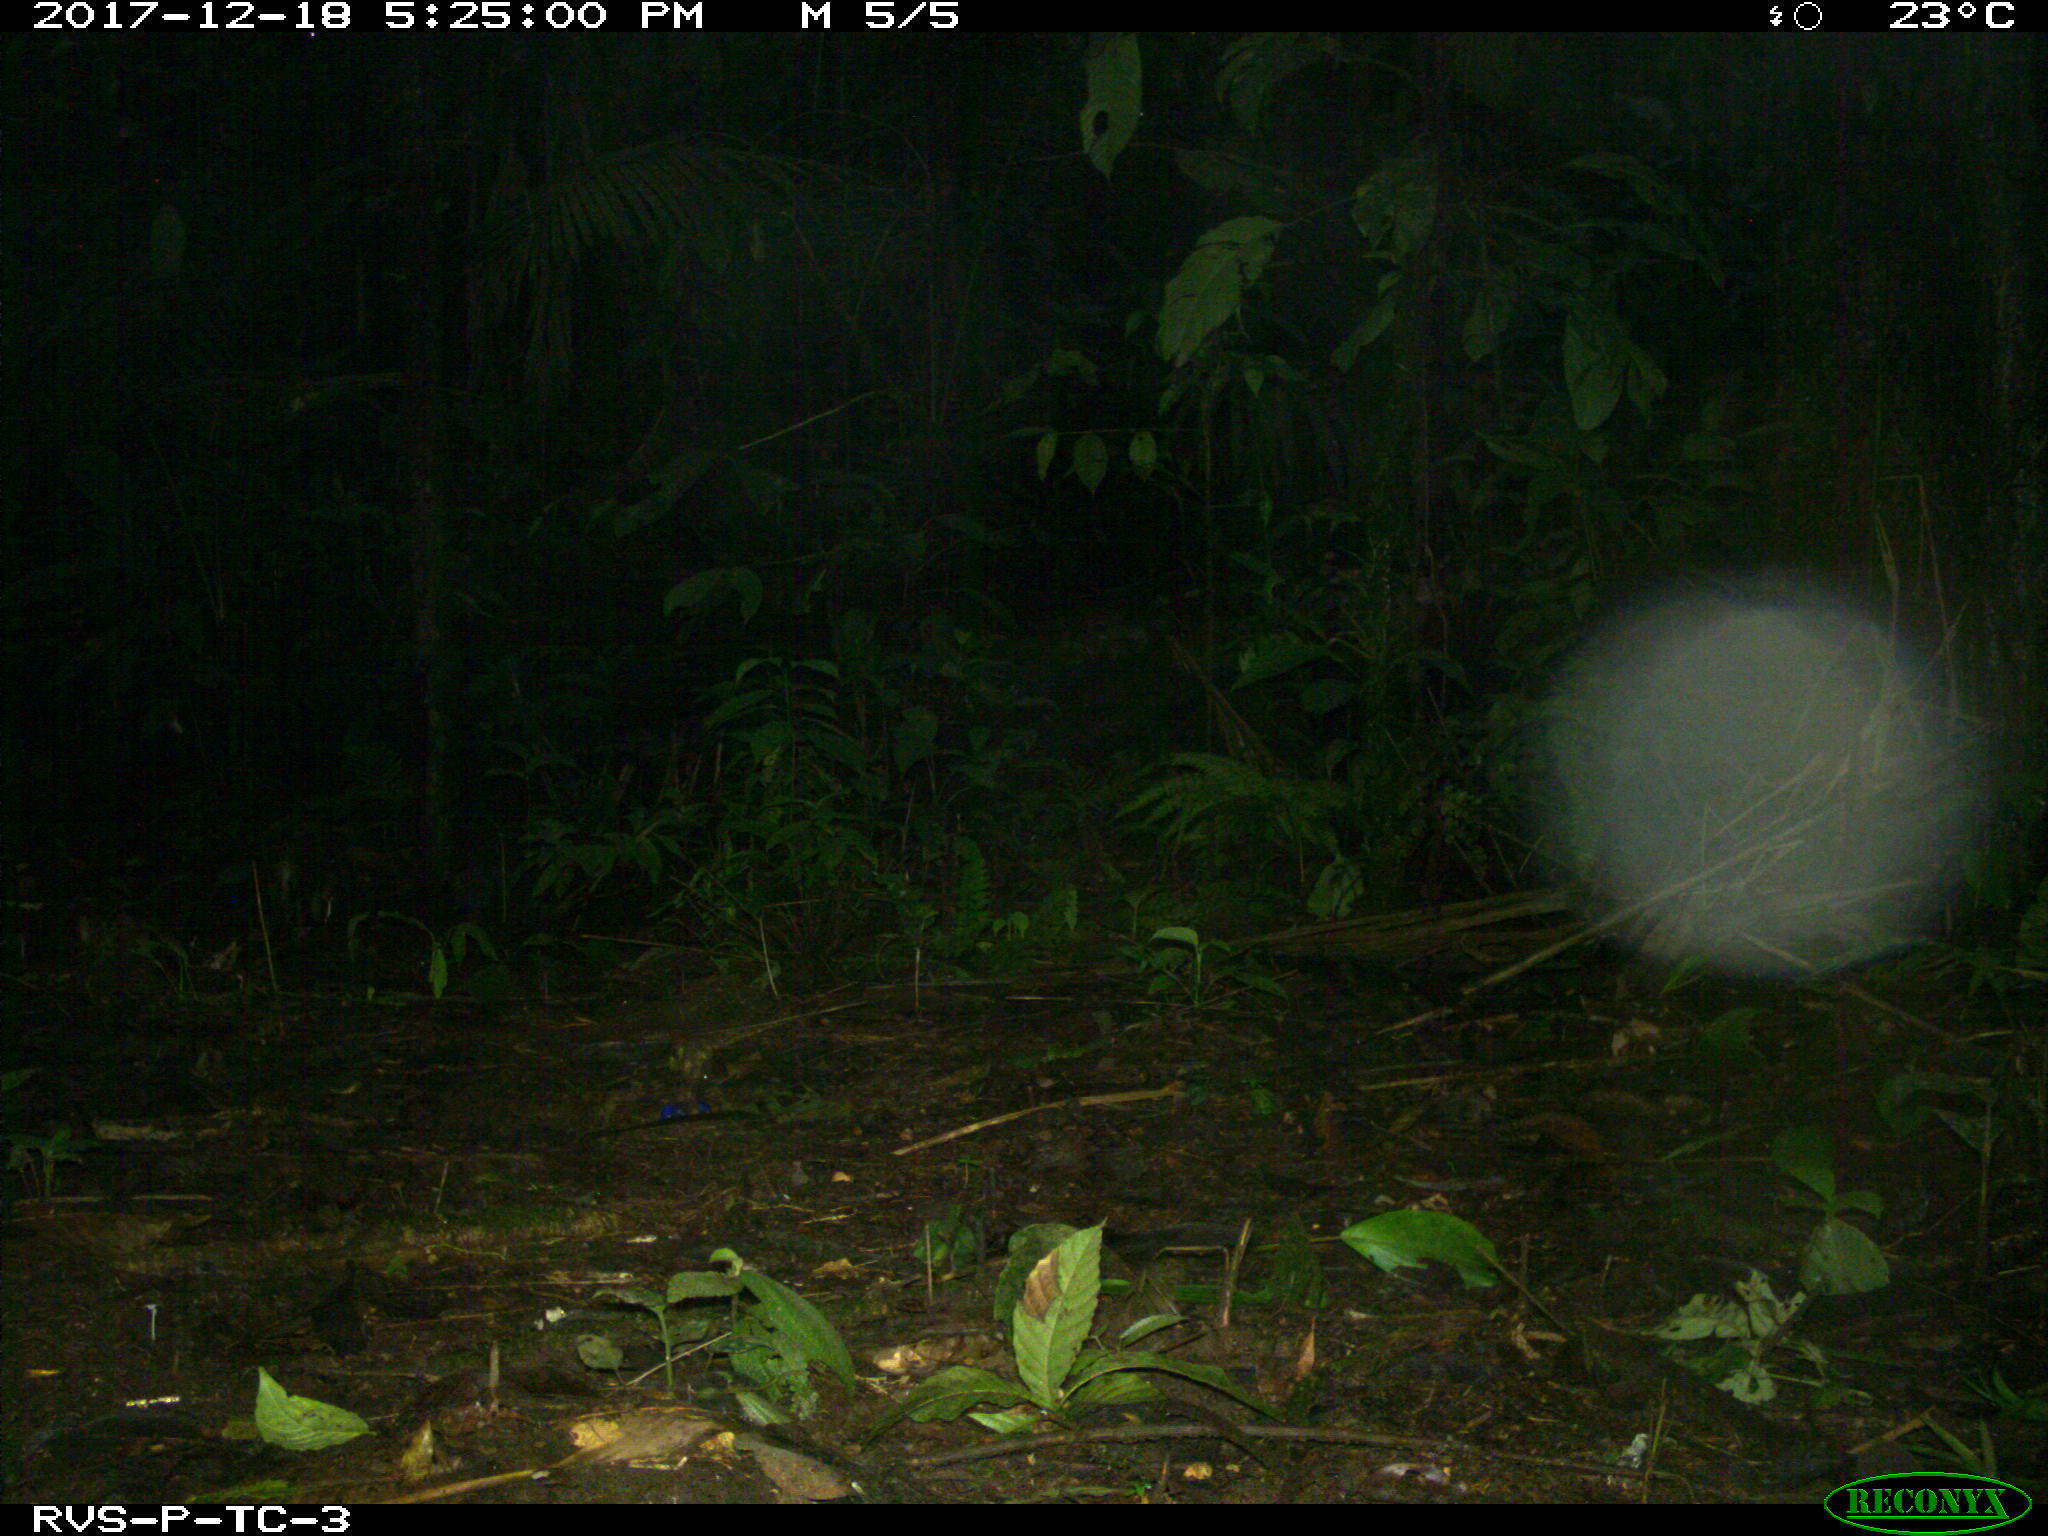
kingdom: Animalia
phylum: Chordata
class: Mammalia
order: Rodentia
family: Dasyproctidae
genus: Dasyprocta
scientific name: Dasyprocta punctata
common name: Central american agouti
